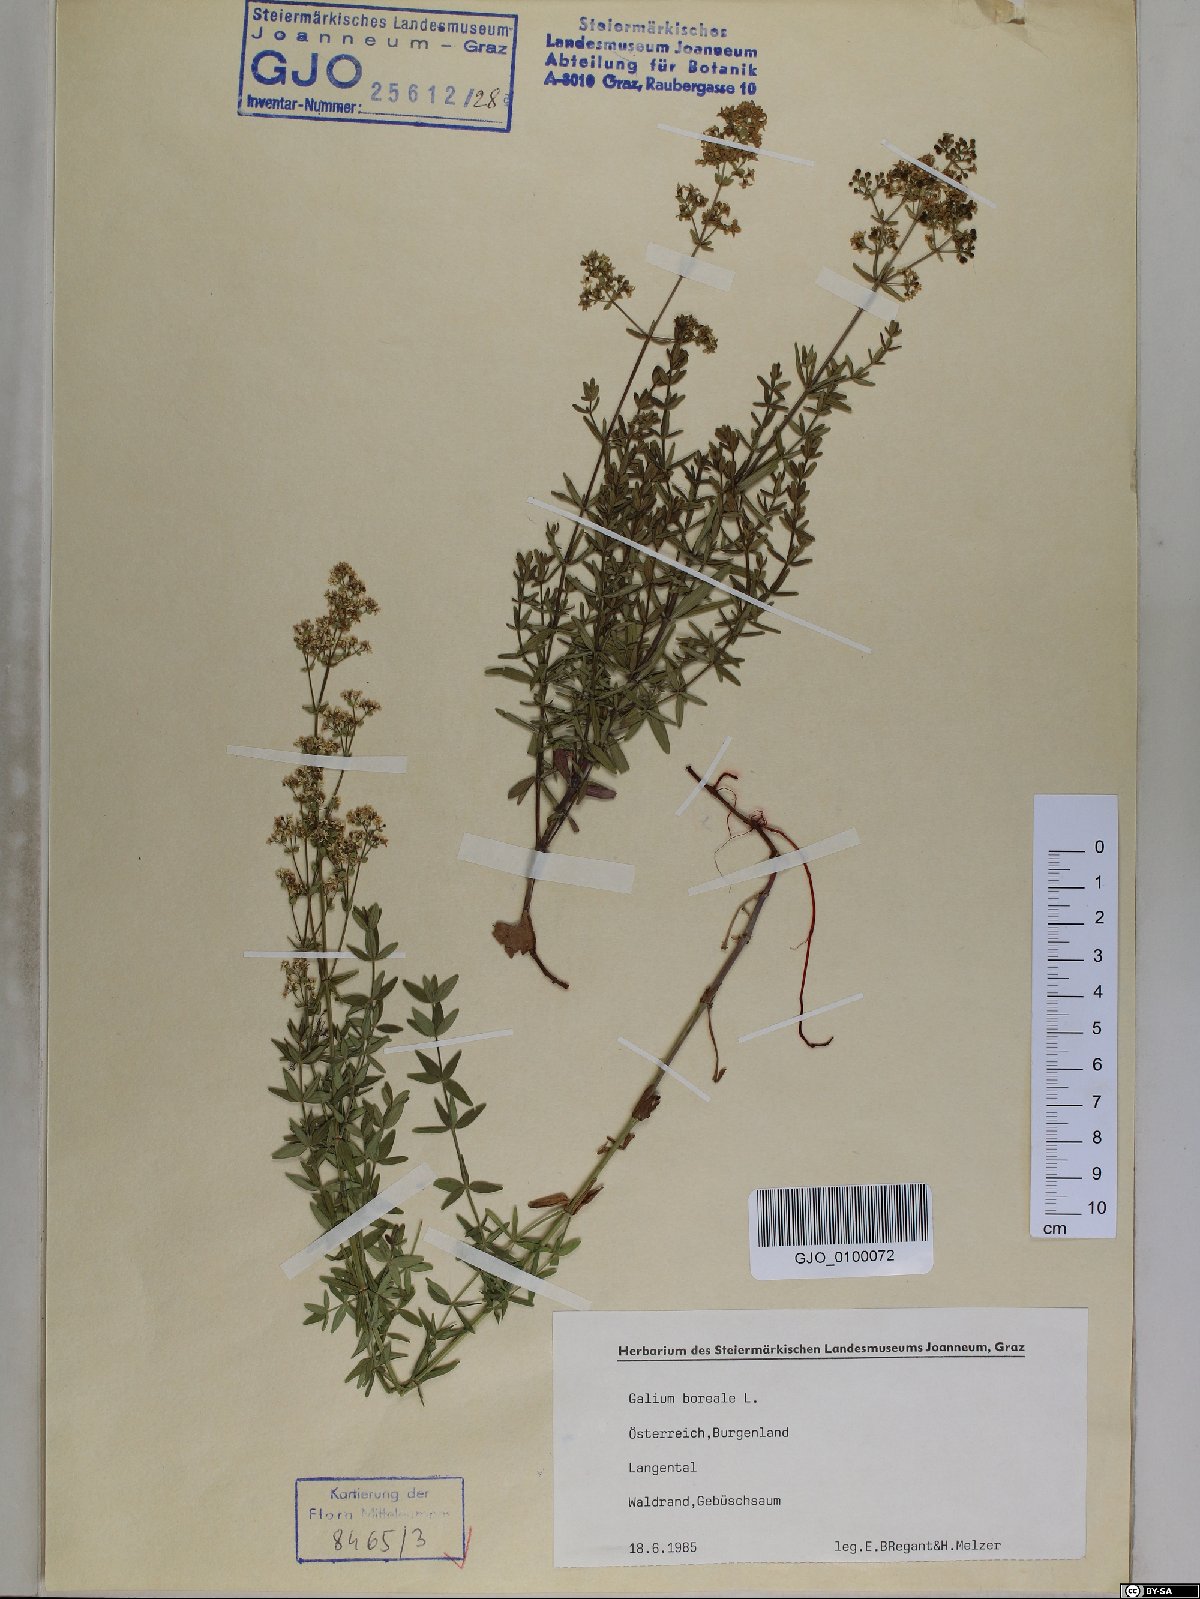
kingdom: Plantae
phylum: Tracheophyta
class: Magnoliopsida
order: Gentianales
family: Rubiaceae
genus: Galium
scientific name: Galium boreale
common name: Northern bedstraw
